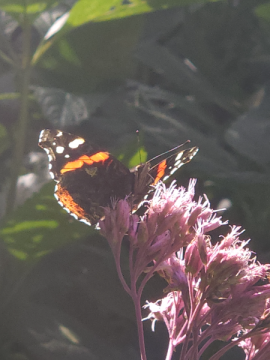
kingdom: Animalia
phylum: Arthropoda
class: Insecta
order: Lepidoptera
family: Nymphalidae
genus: Vanessa
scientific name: Vanessa atalanta
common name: Red Admiral
